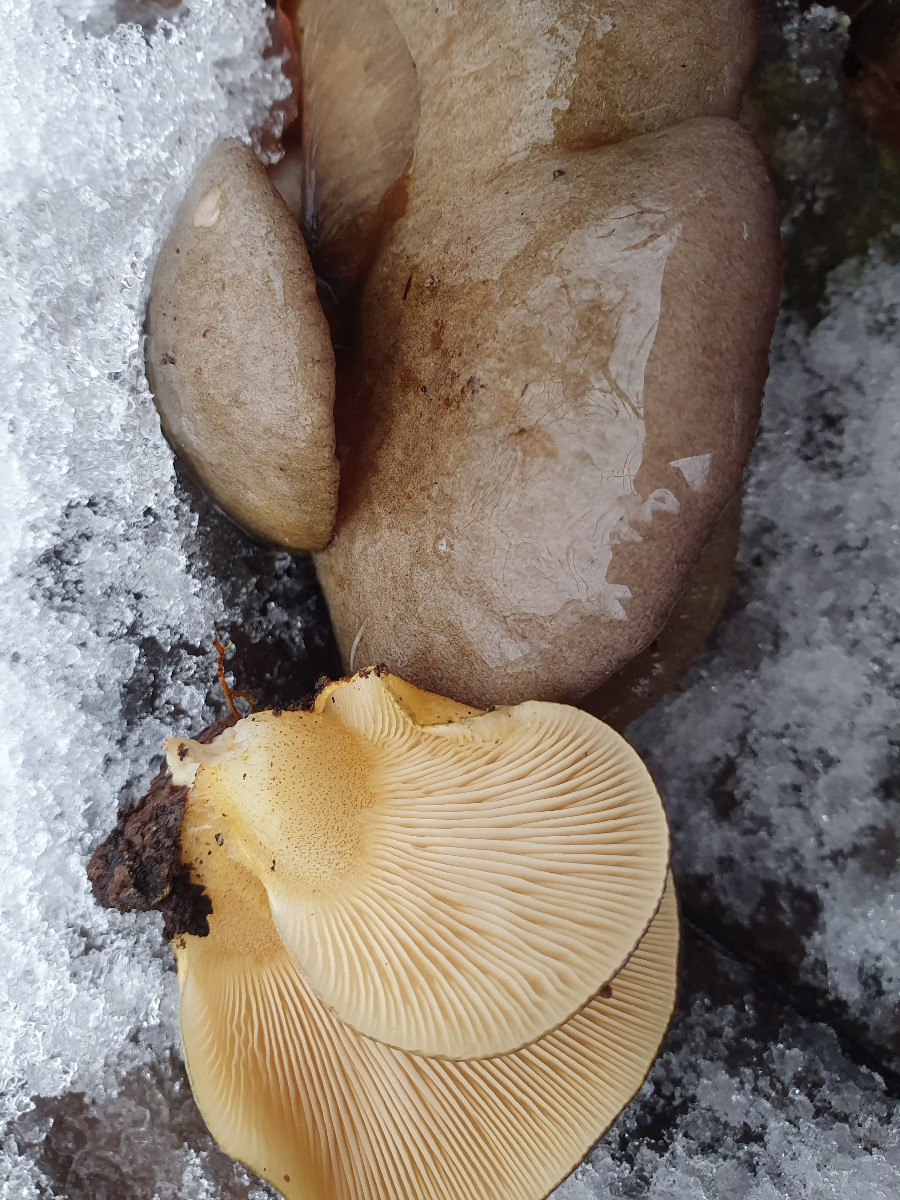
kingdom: Fungi
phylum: Basidiomycota
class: Agaricomycetes
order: Agaricales
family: Sarcomyxaceae
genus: Sarcomyxa
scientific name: Sarcomyxa serotina
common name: gummihat
